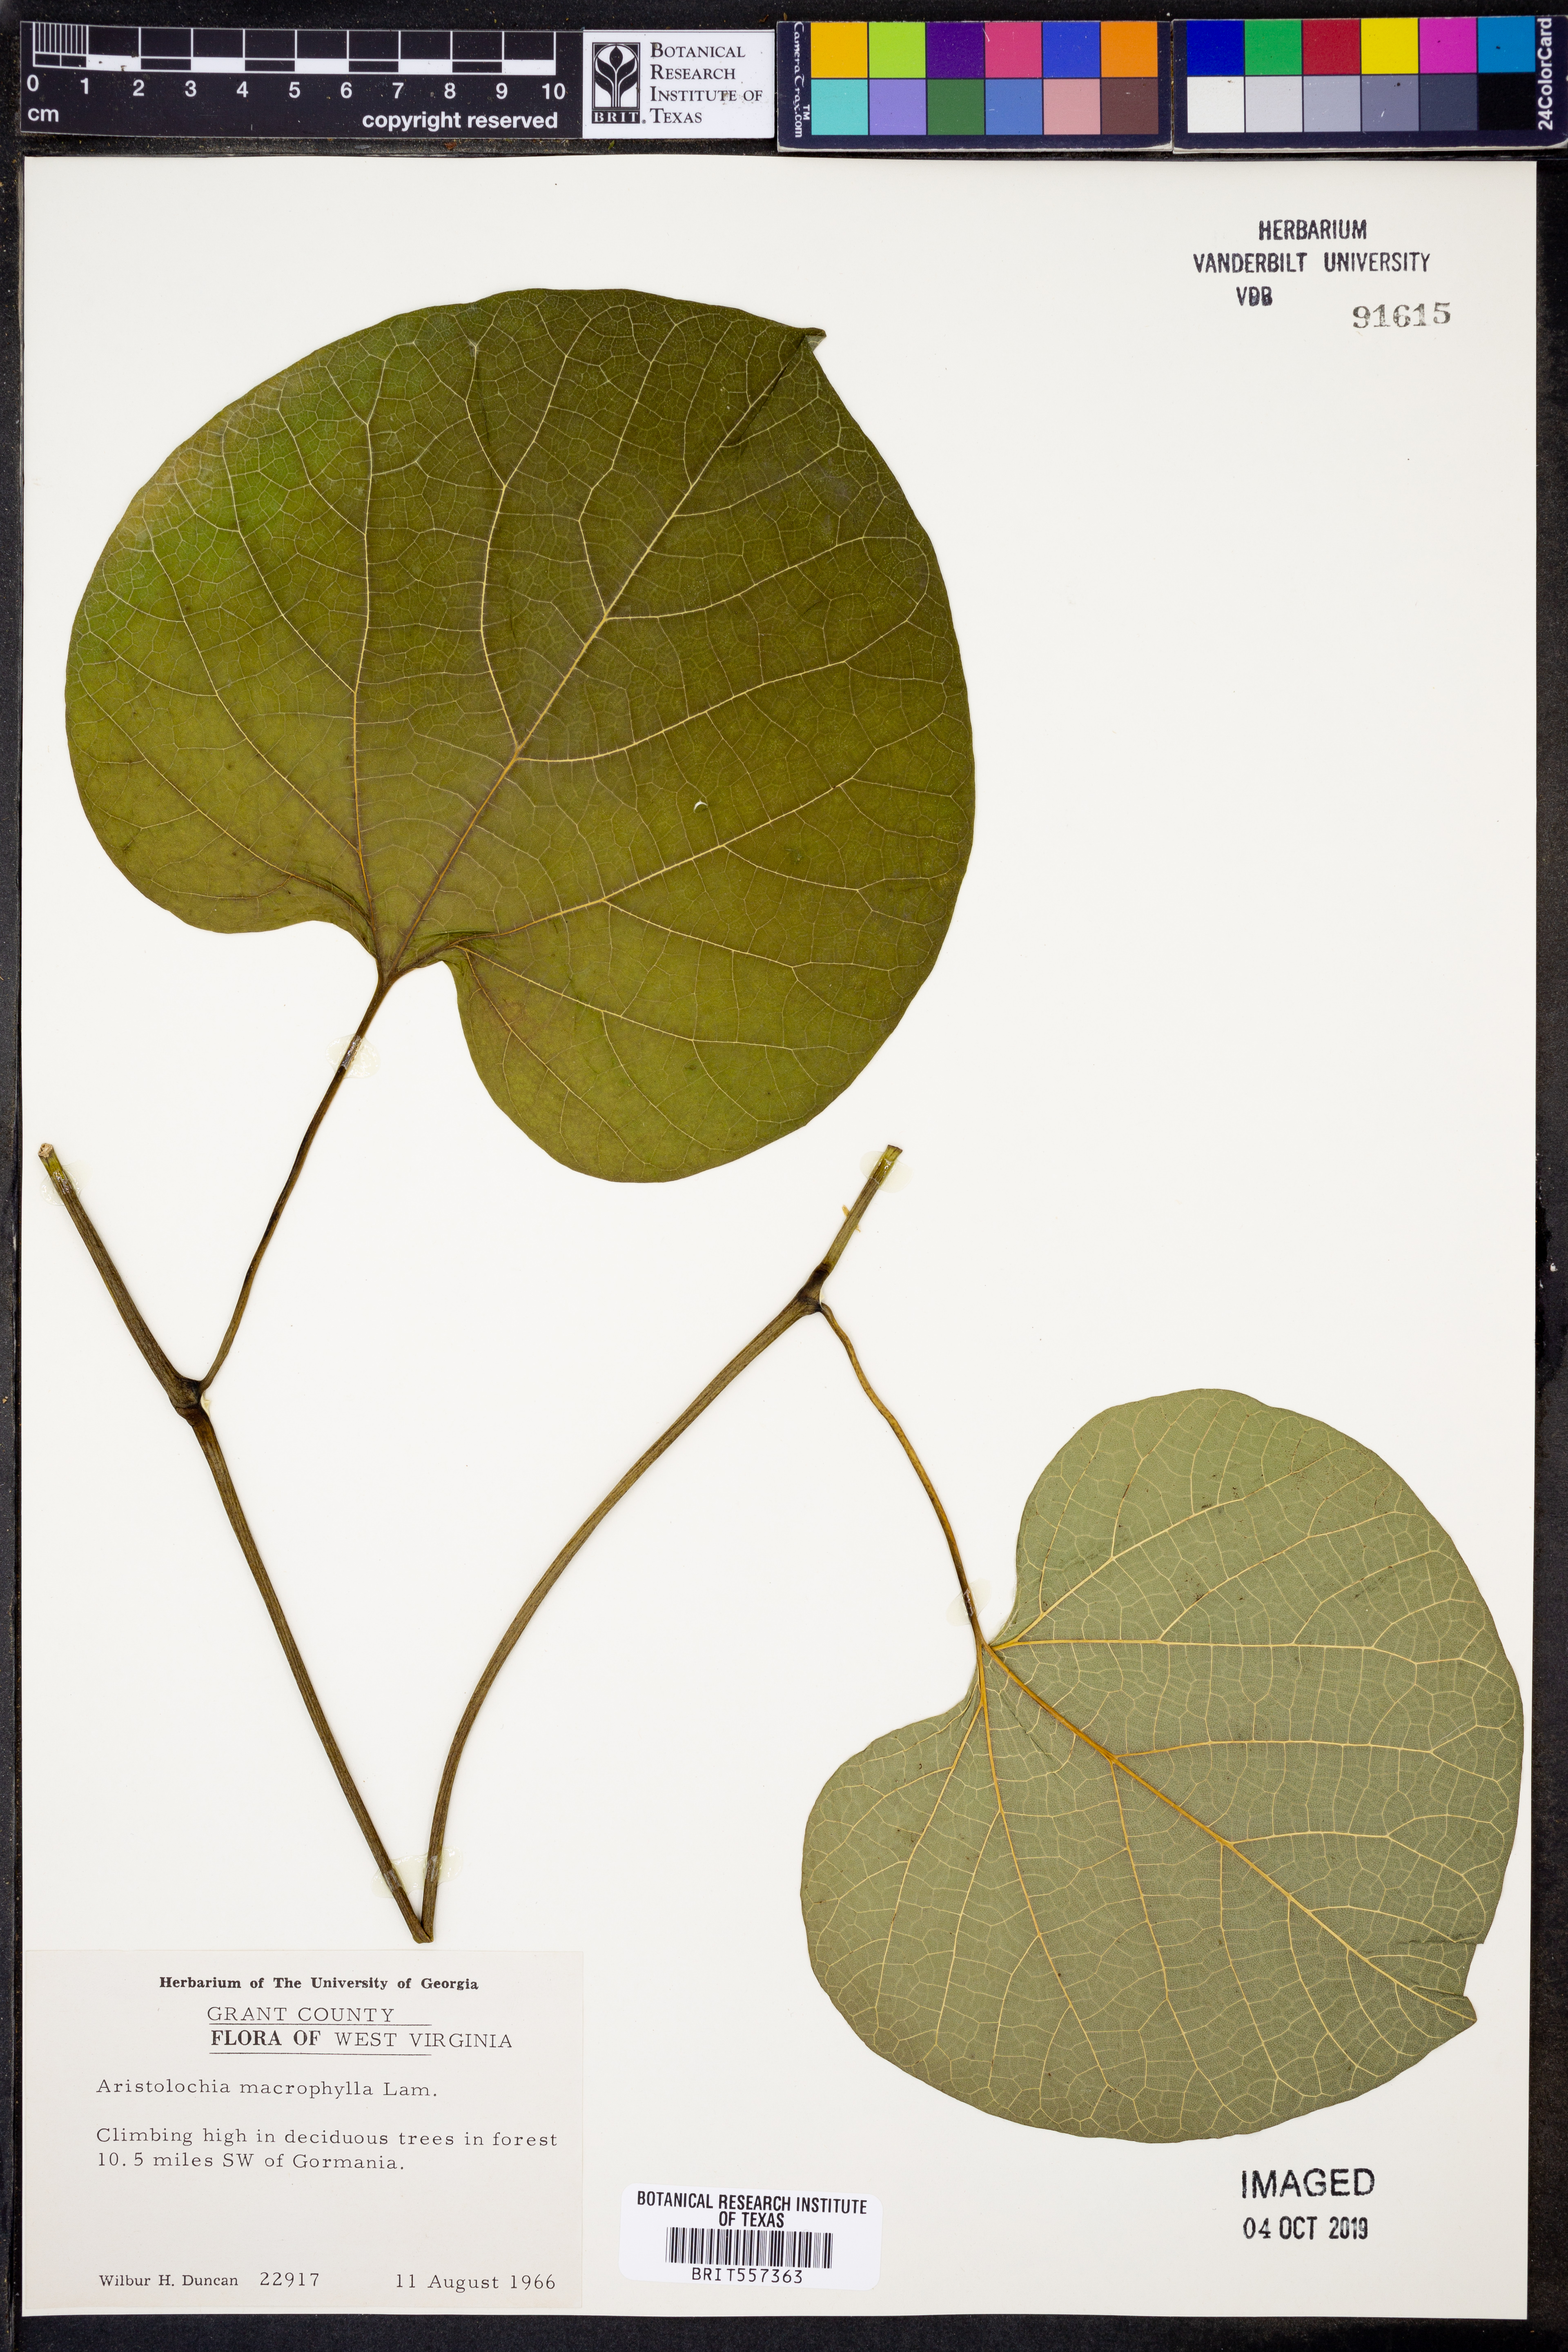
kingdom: Plantae
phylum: Tracheophyta
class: Magnoliopsida
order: Piperales
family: Aristolochiaceae
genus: Isotrema
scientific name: Isotrema macrophyllum
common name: Dutchman's-pipe
